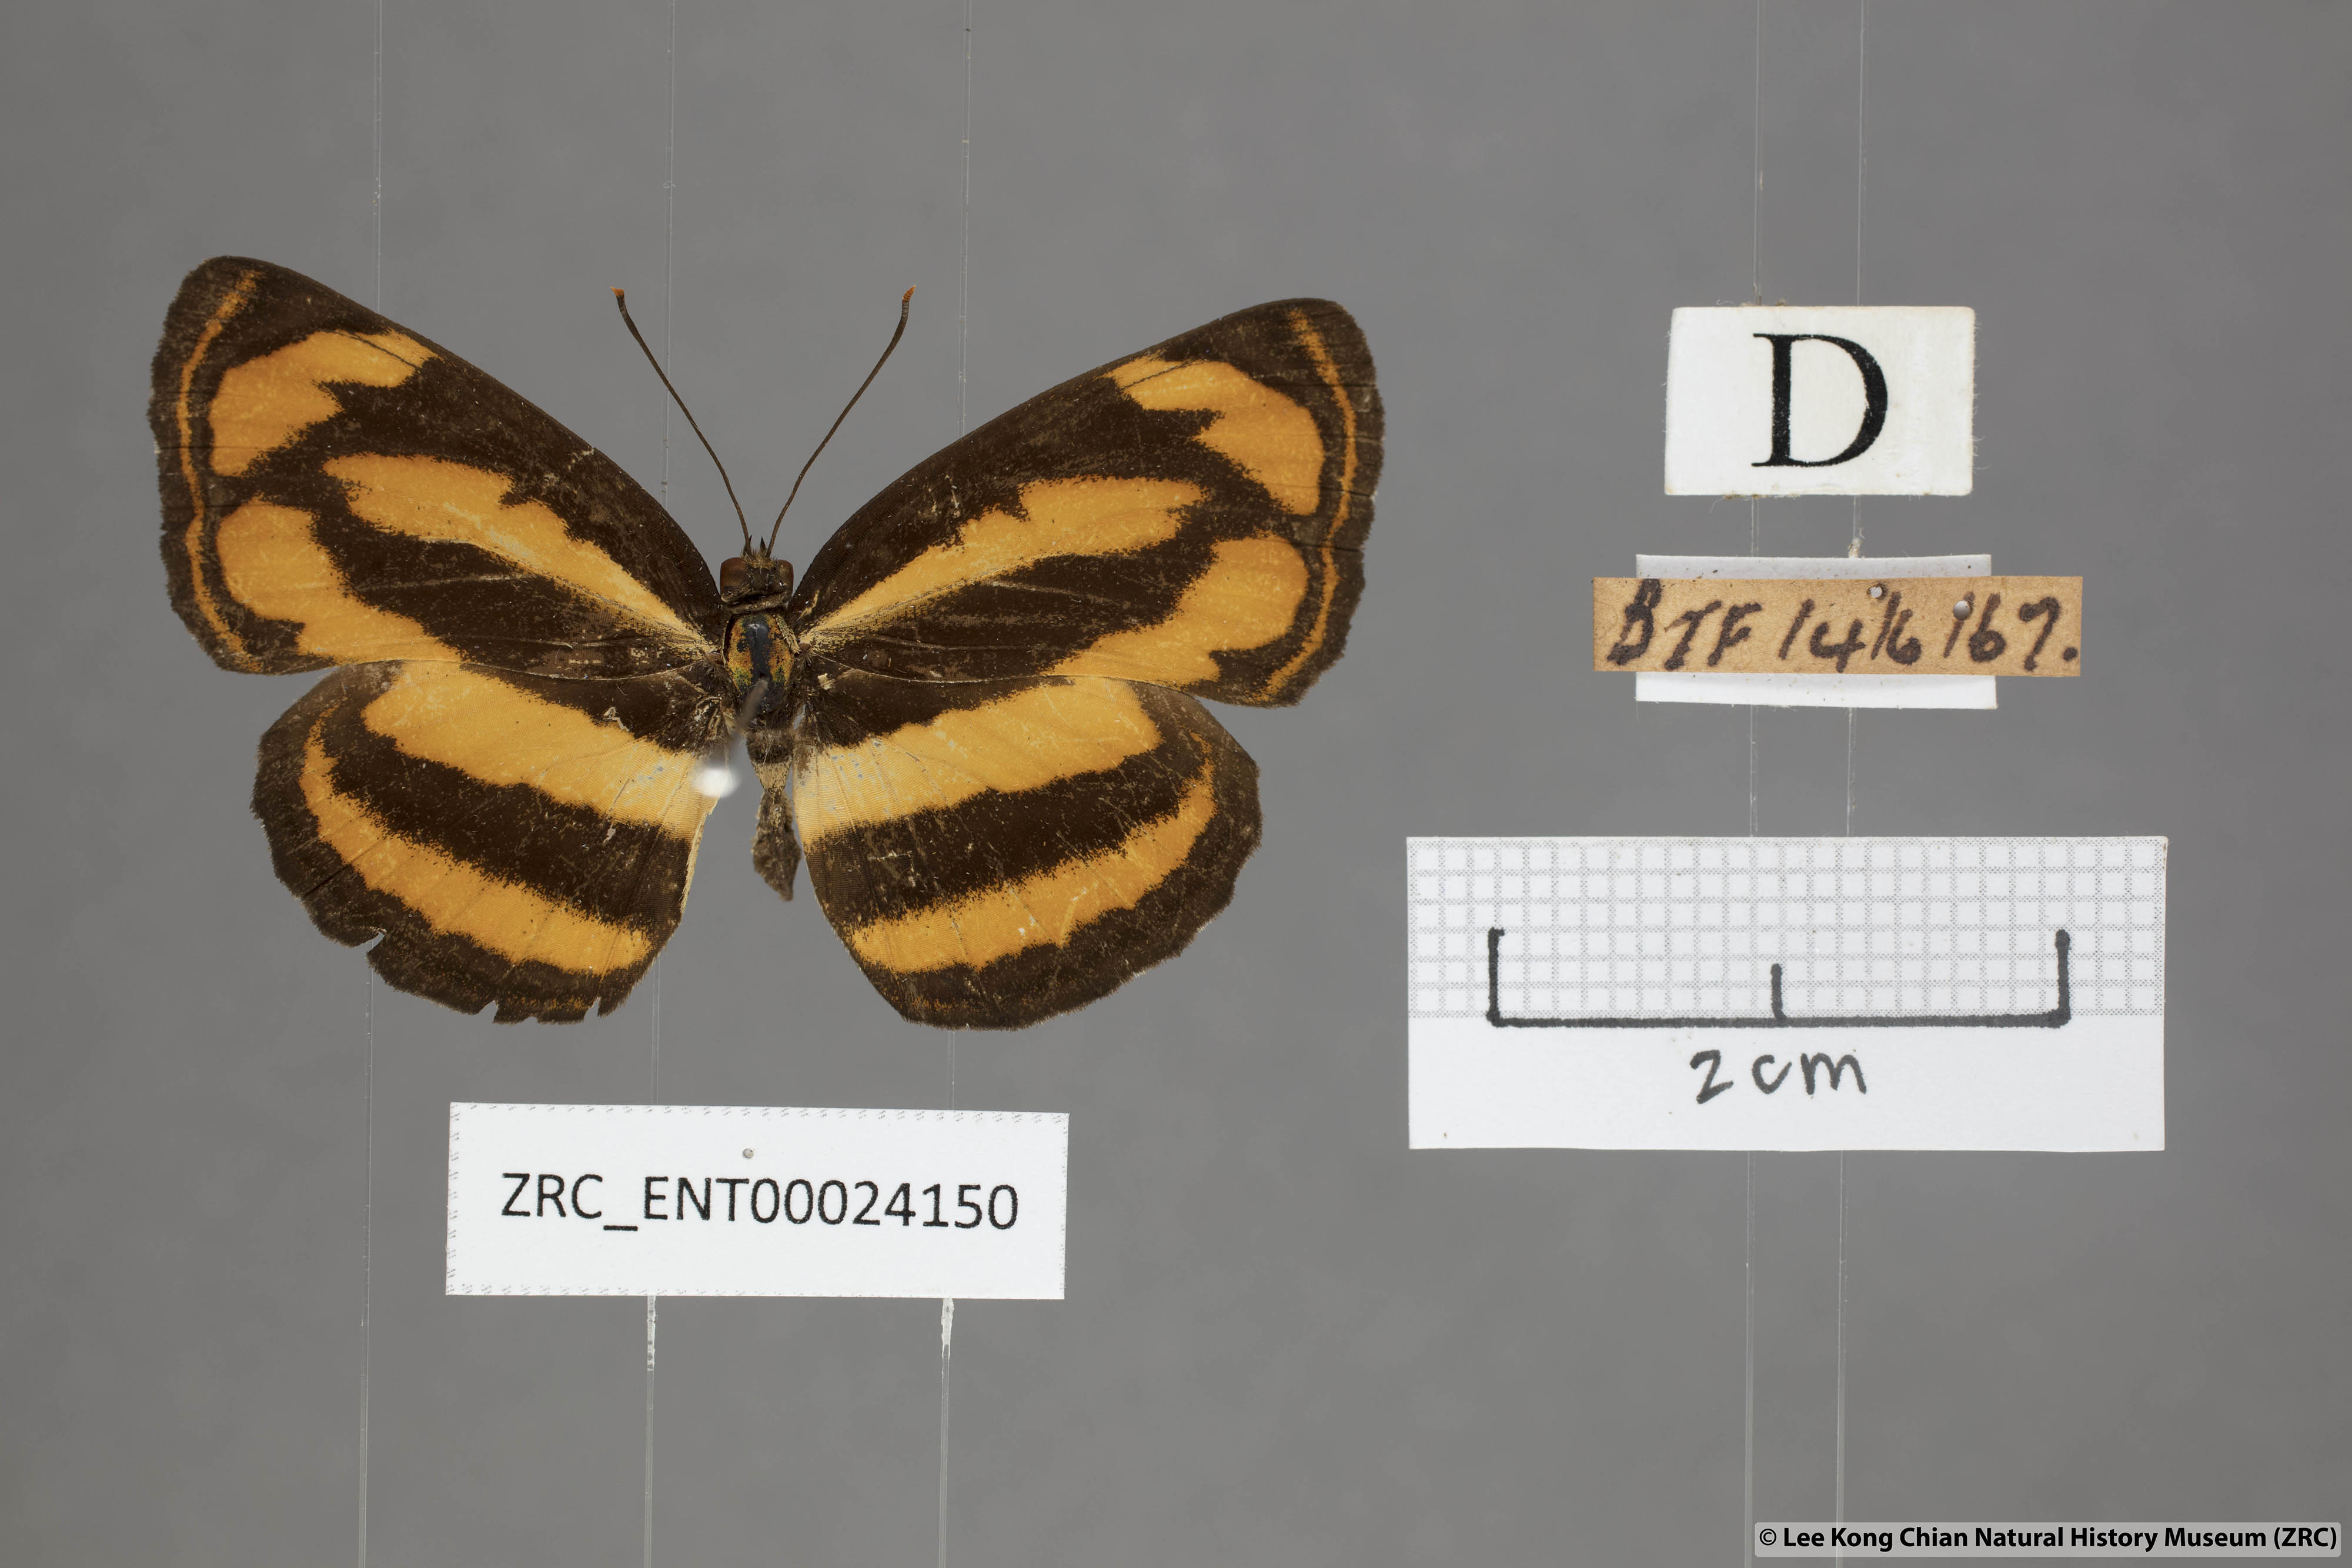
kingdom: Animalia
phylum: Arthropoda
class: Insecta
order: Lepidoptera
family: Nymphalidae
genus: Pantoporia
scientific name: Pantoporia sandaka
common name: Extra lascar
